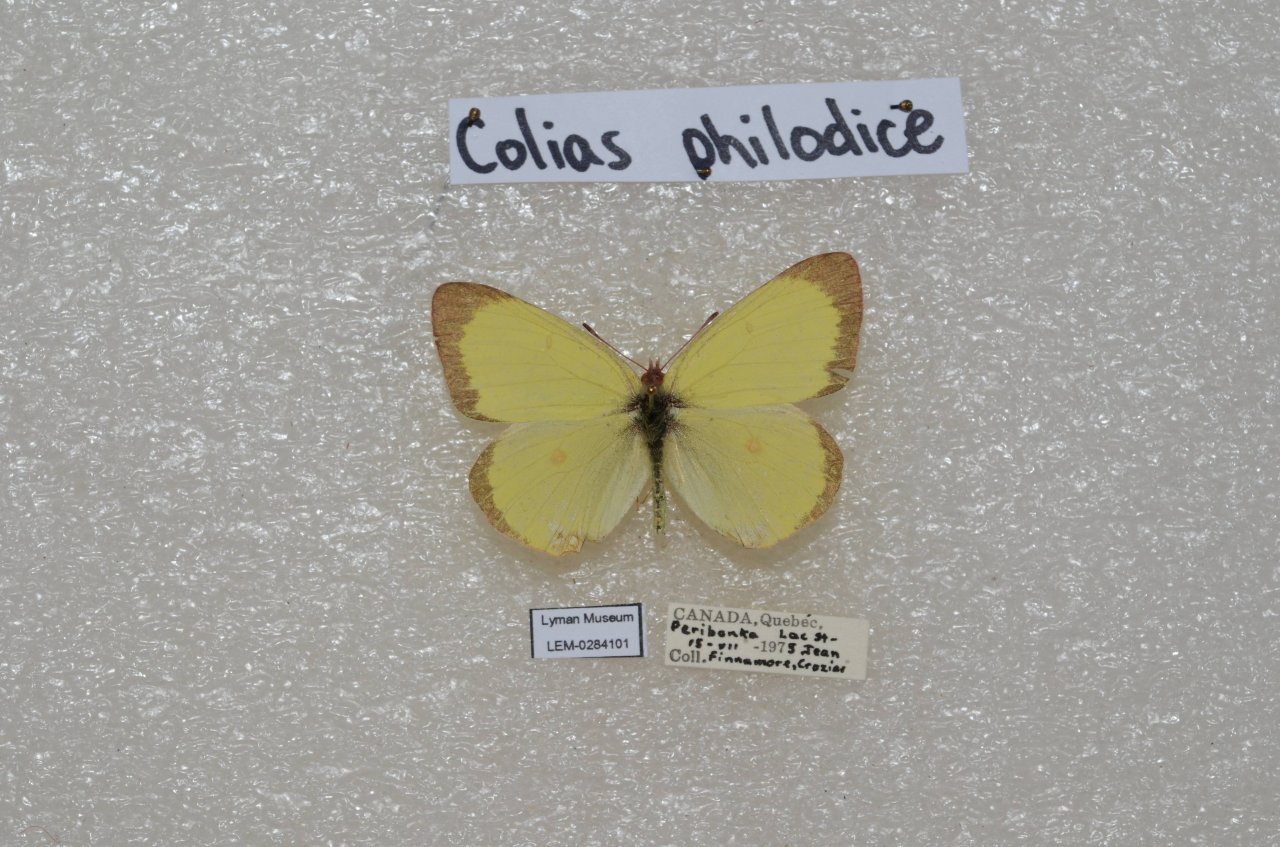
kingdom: Animalia
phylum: Arthropoda
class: Insecta
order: Lepidoptera
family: Pieridae
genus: Colias
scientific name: Colias interior
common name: Pink-edged Sulphur
